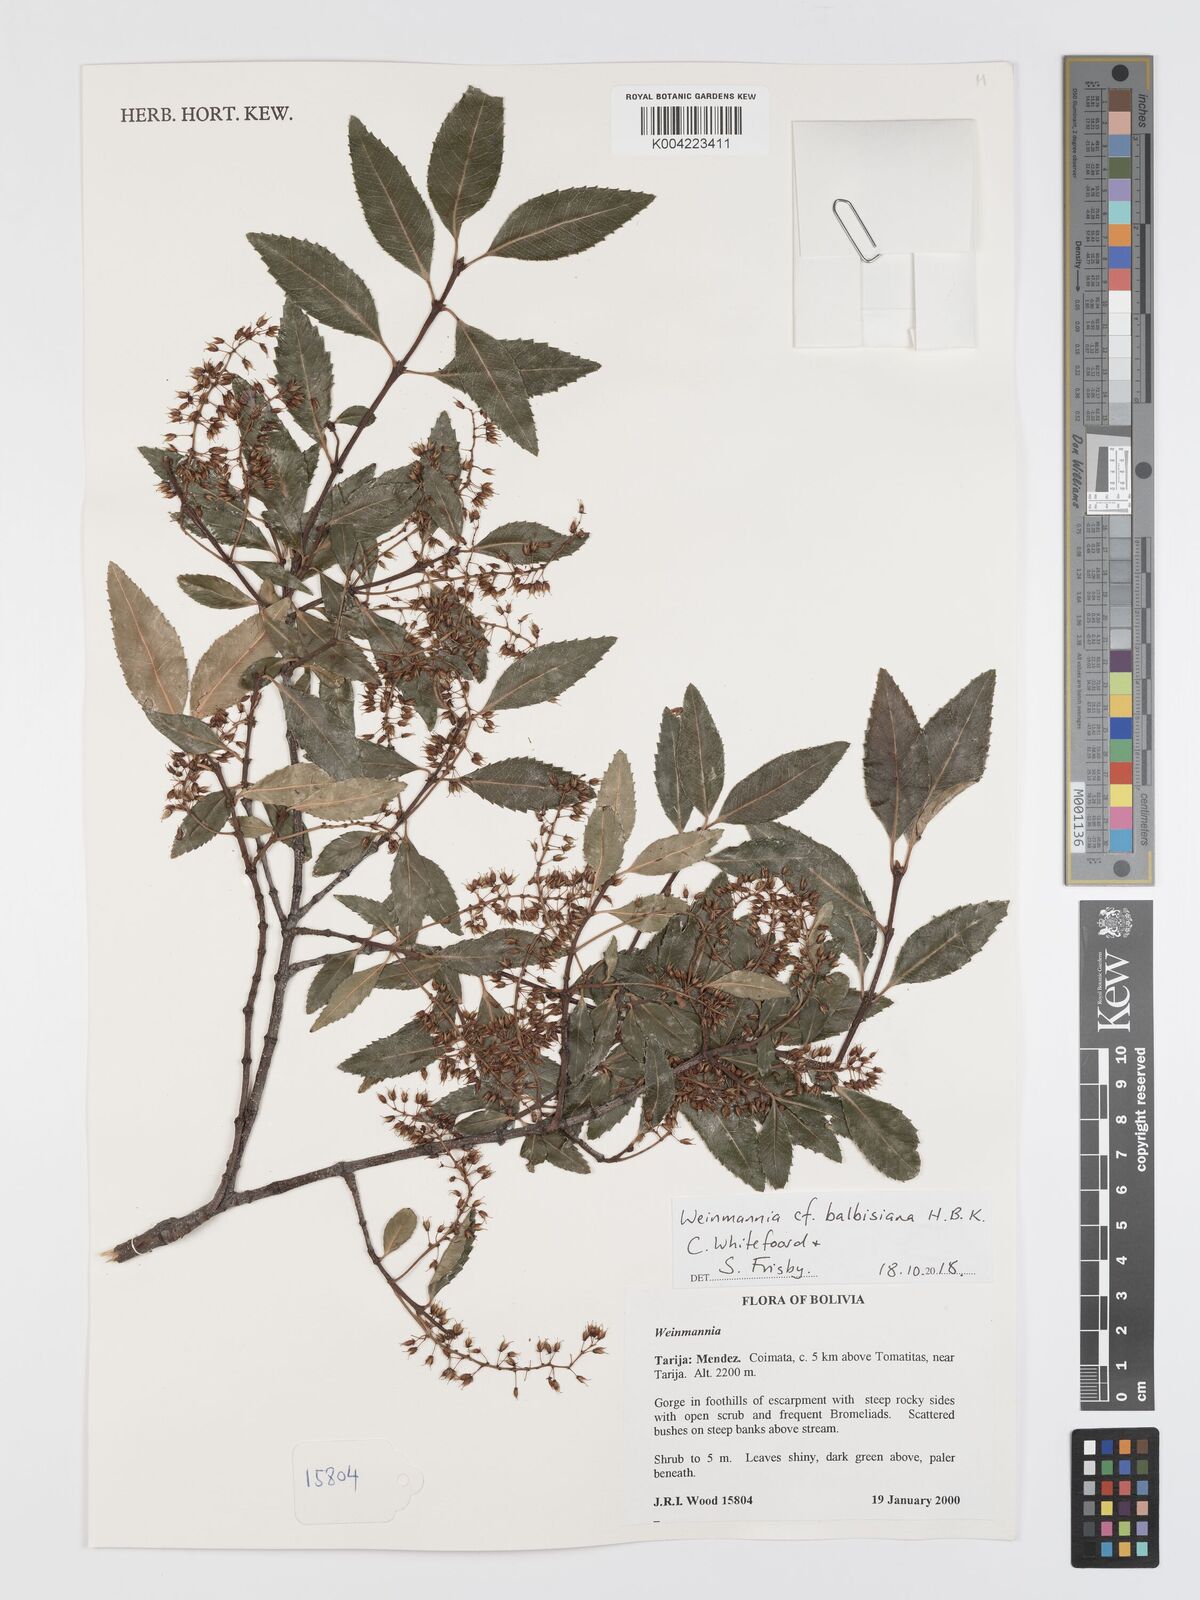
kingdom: Plantae
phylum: Tracheophyta
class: Magnoliopsida
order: Oxalidales
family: Cunoniaceae
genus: Weinmannia
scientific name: Weinmannia balbisana
